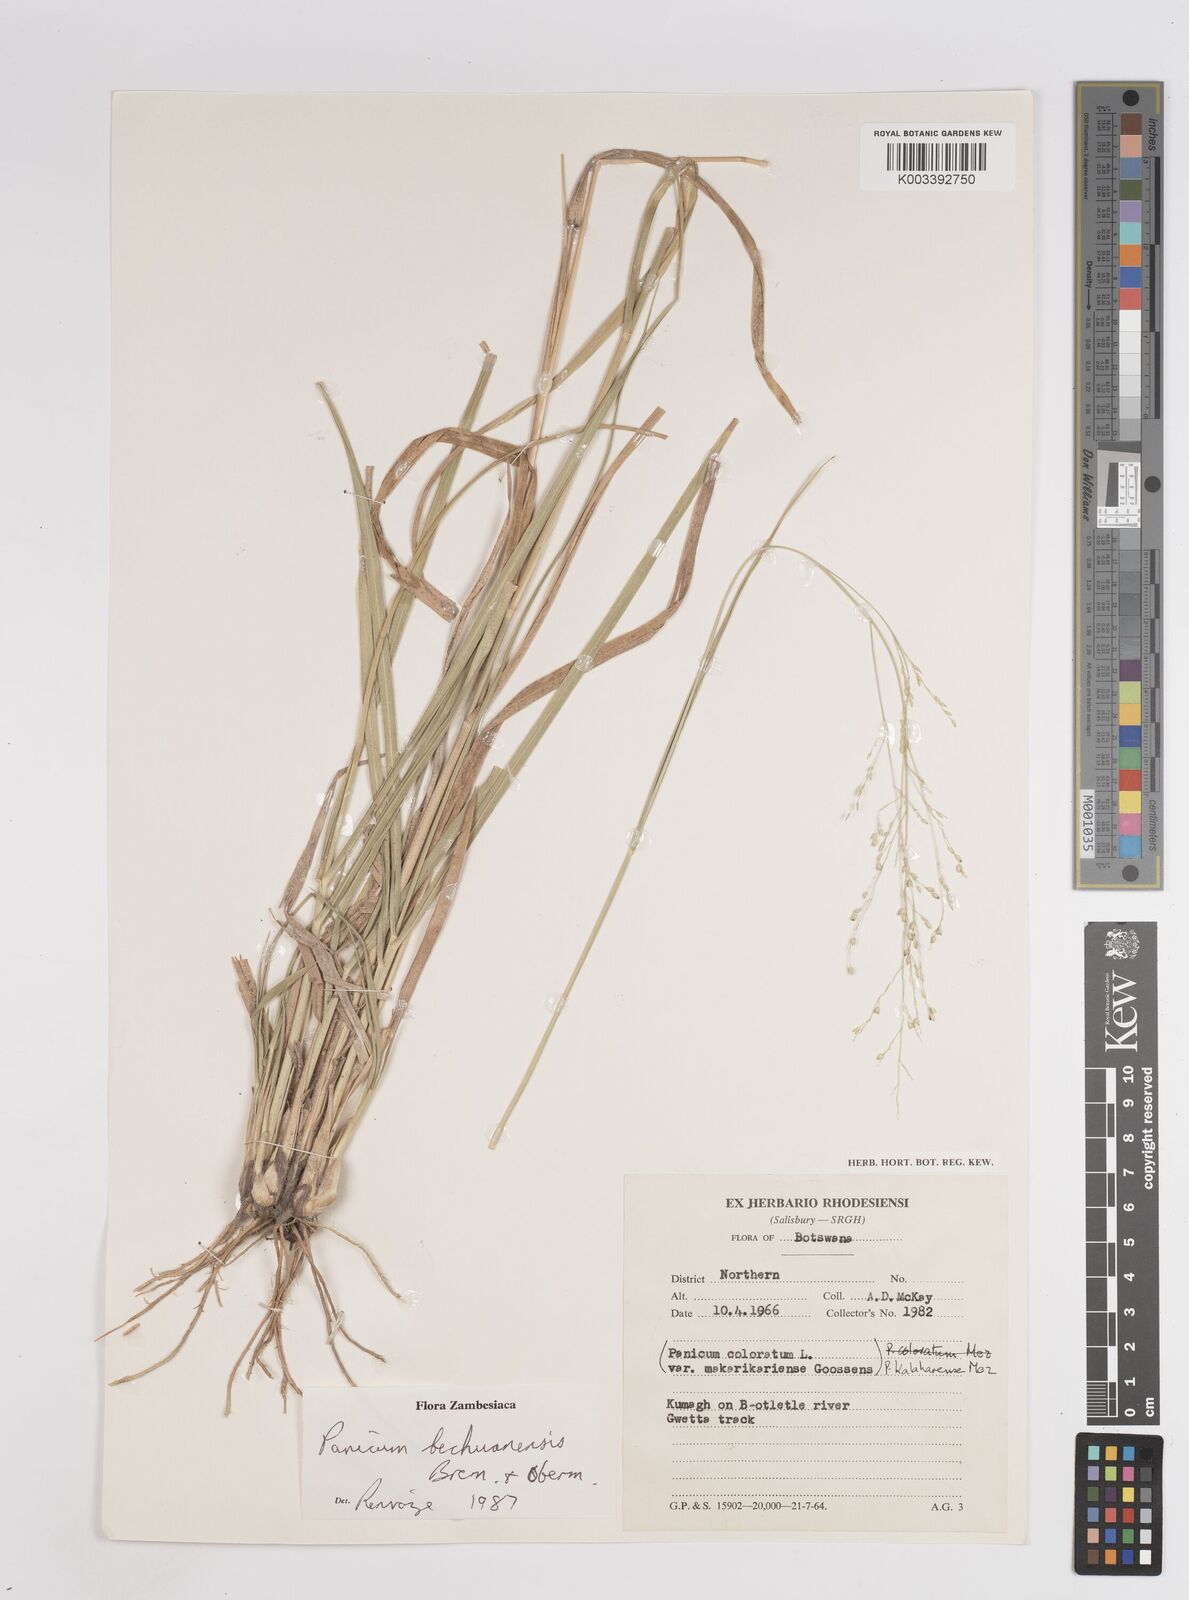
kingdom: Plantae
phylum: Tracheophyta
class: Liliopsida
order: Poales
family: Poaceae
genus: Panicum
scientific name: Panicum bechuanense
